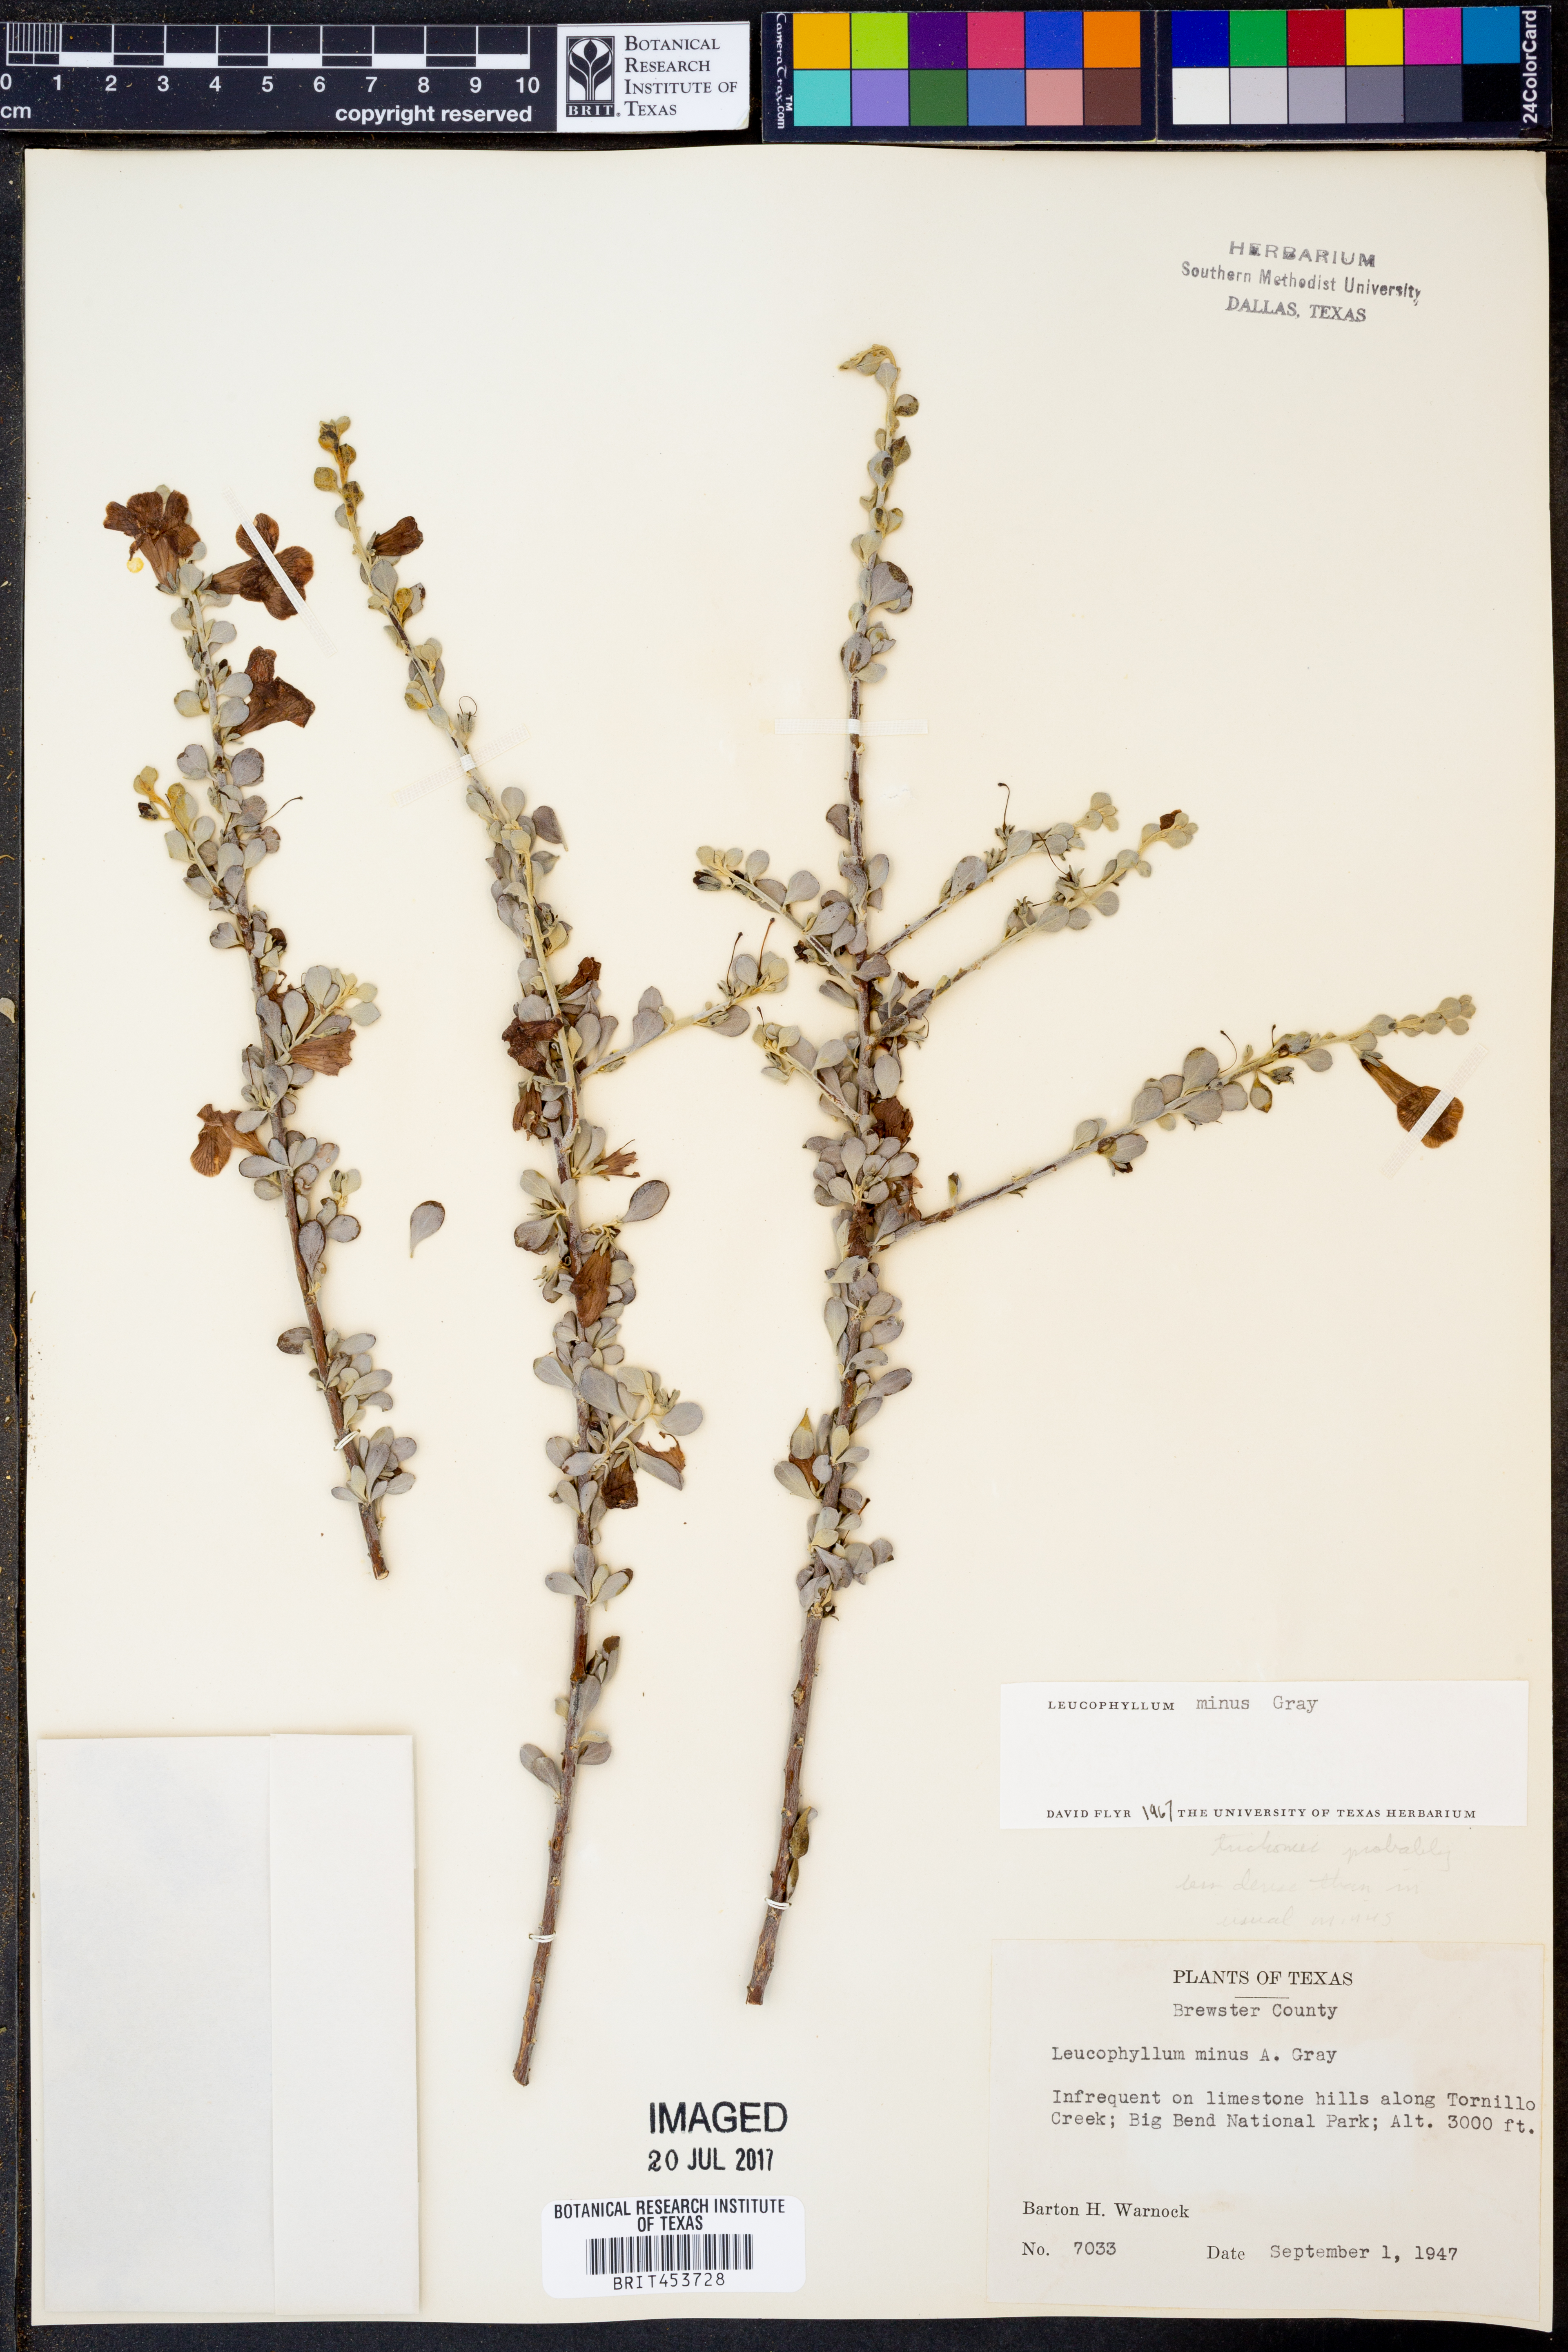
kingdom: Plantae
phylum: Tracheophyta
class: Magnoliopsida
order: Lamiales
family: Scrophulariaceae
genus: Leucophyllum
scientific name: Leucophyllum minus
